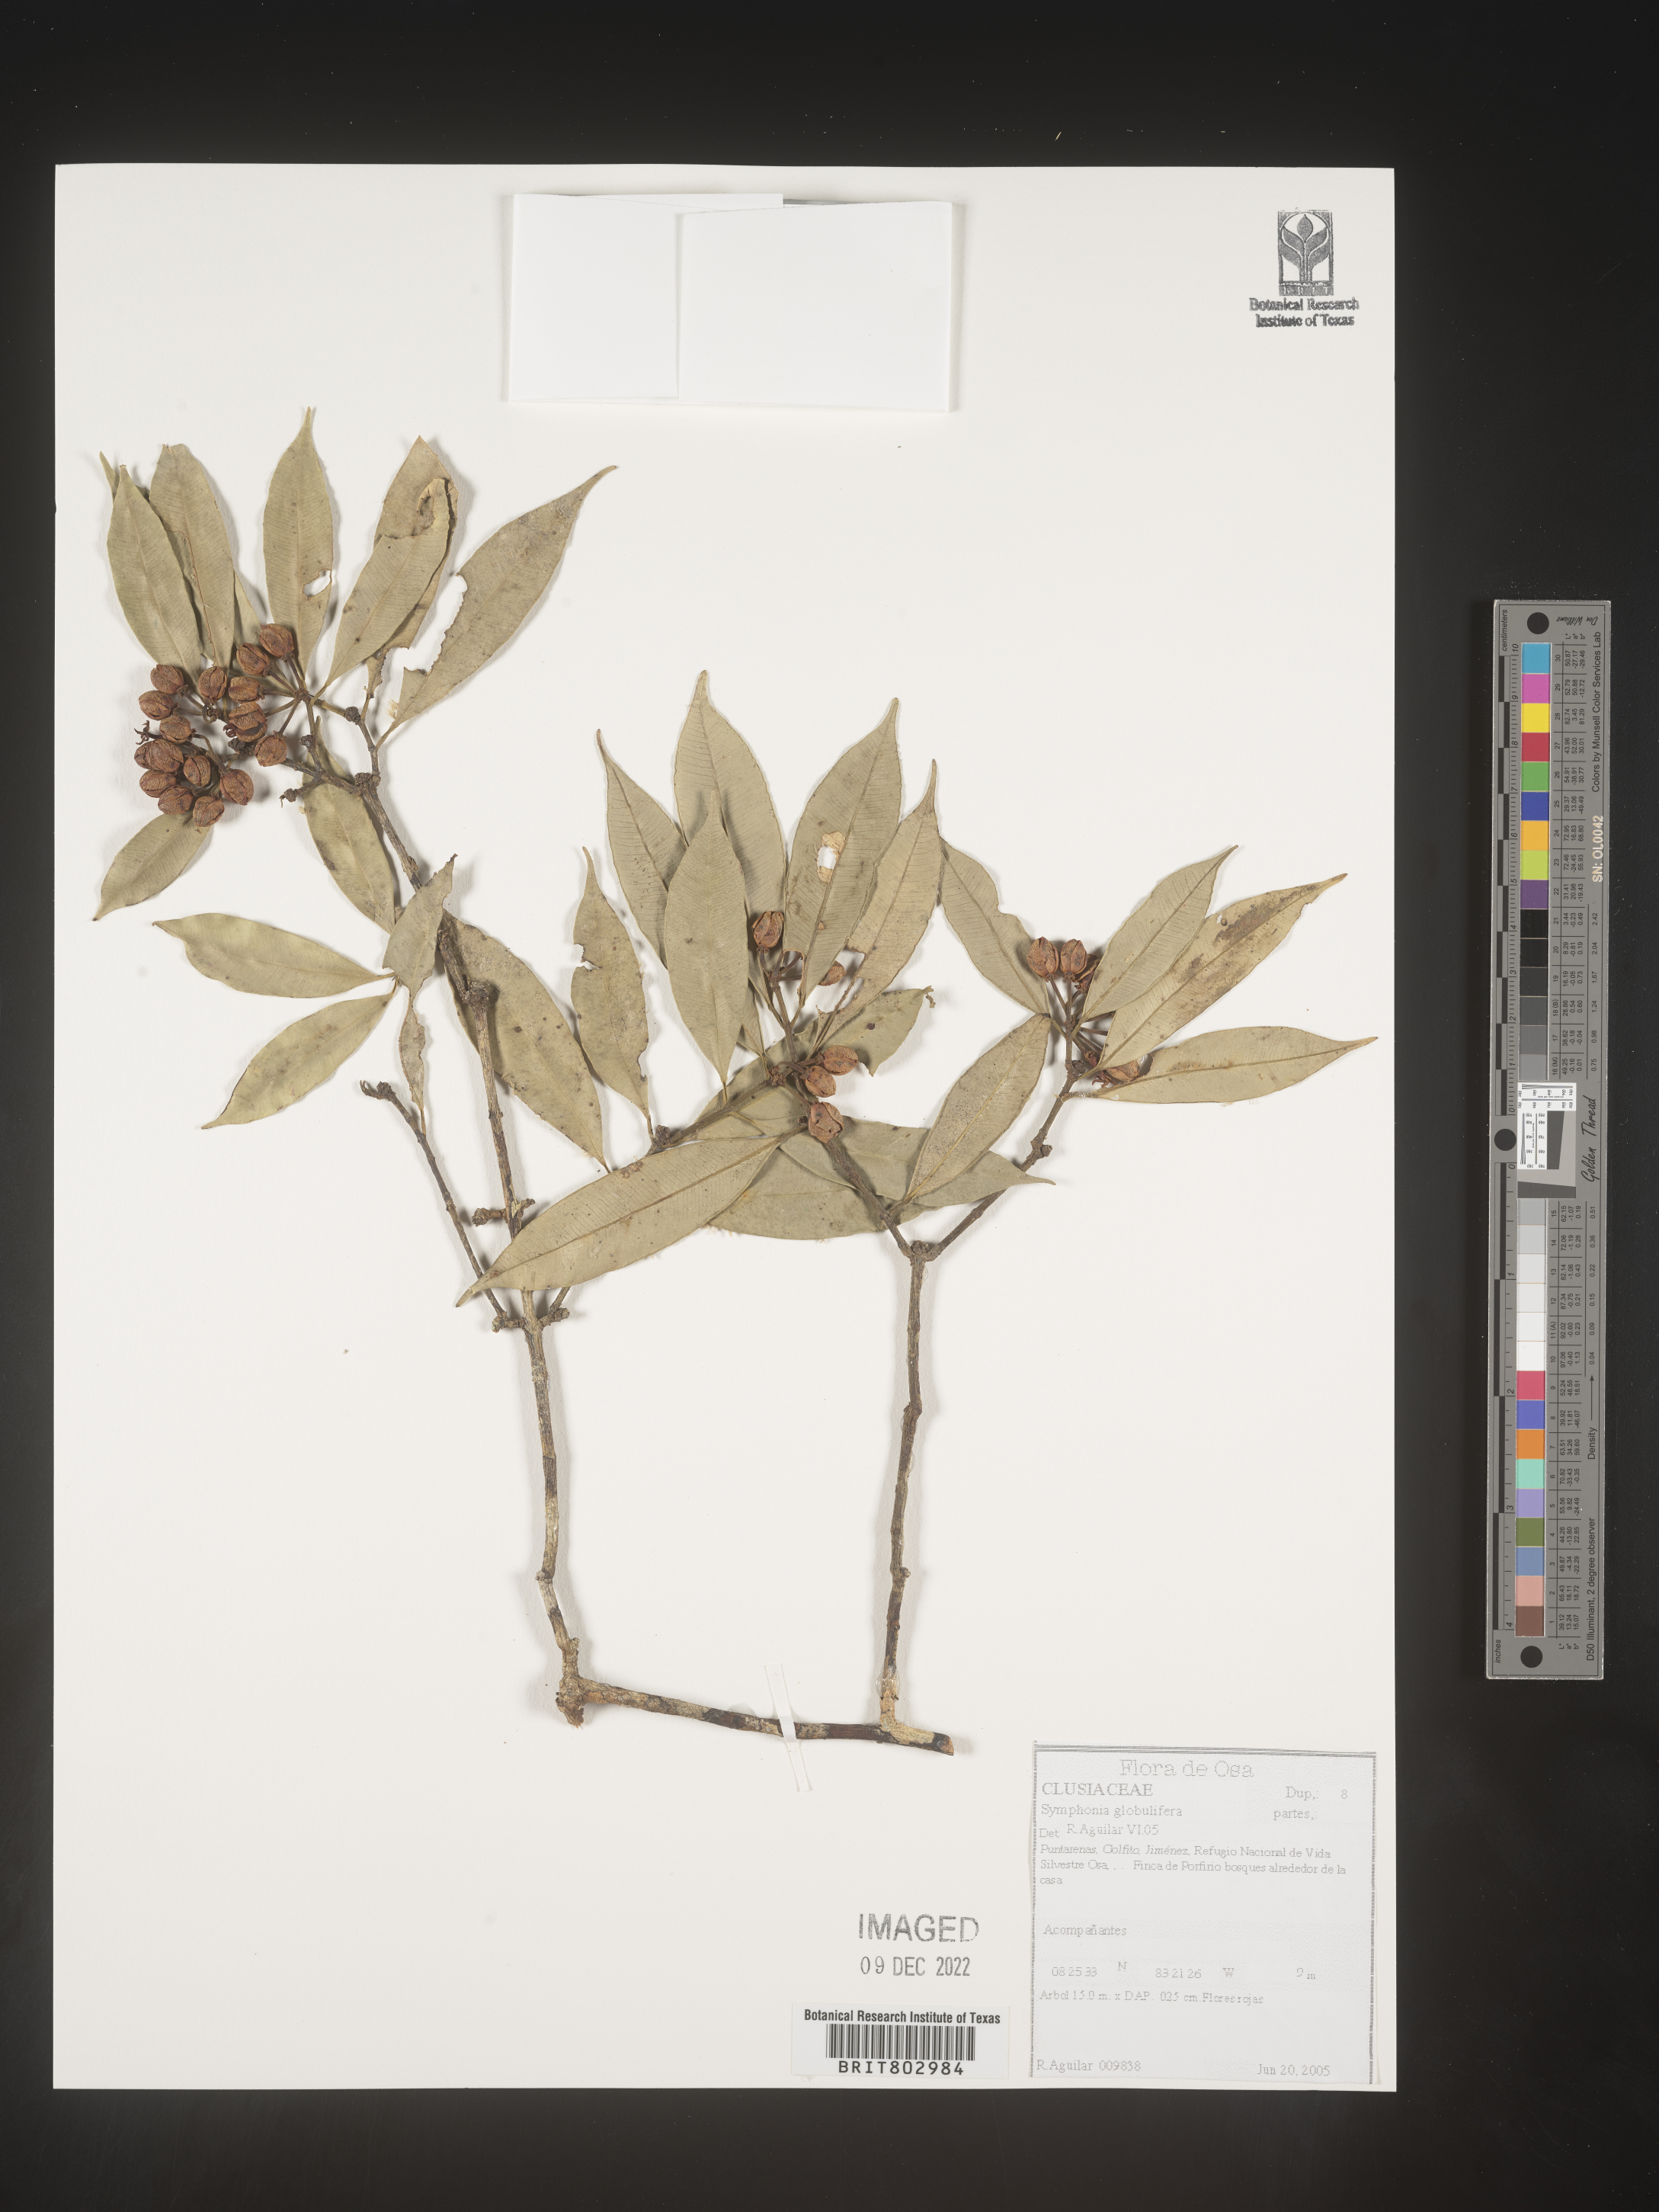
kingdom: Plantae
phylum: Tracheophyta
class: Magnoliopsida
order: Malpighiales
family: Clusiaceae
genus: Symphonia
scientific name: Symphonia
